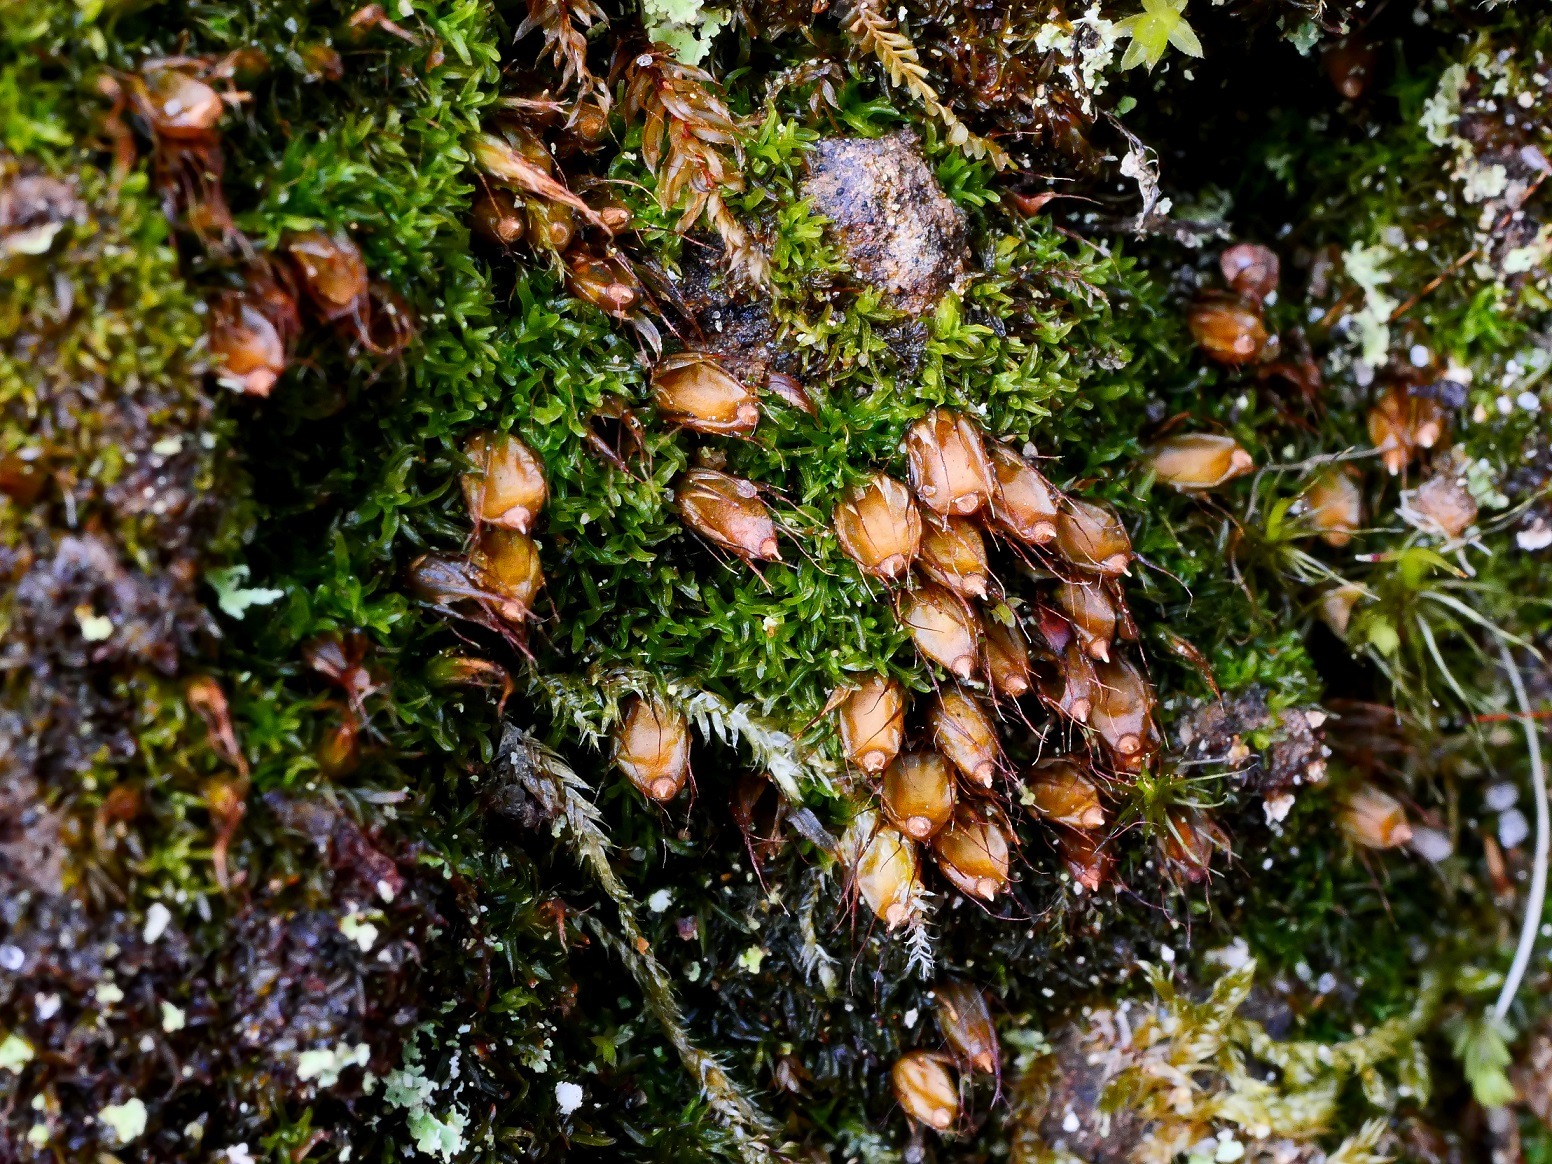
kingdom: Plantae
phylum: Bryophyta
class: Bryopsida
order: Diphysciales
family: Diphysciaceae
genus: Diphyscium
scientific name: Diphyscium foliosum
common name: Stilkløs sækkapsel
